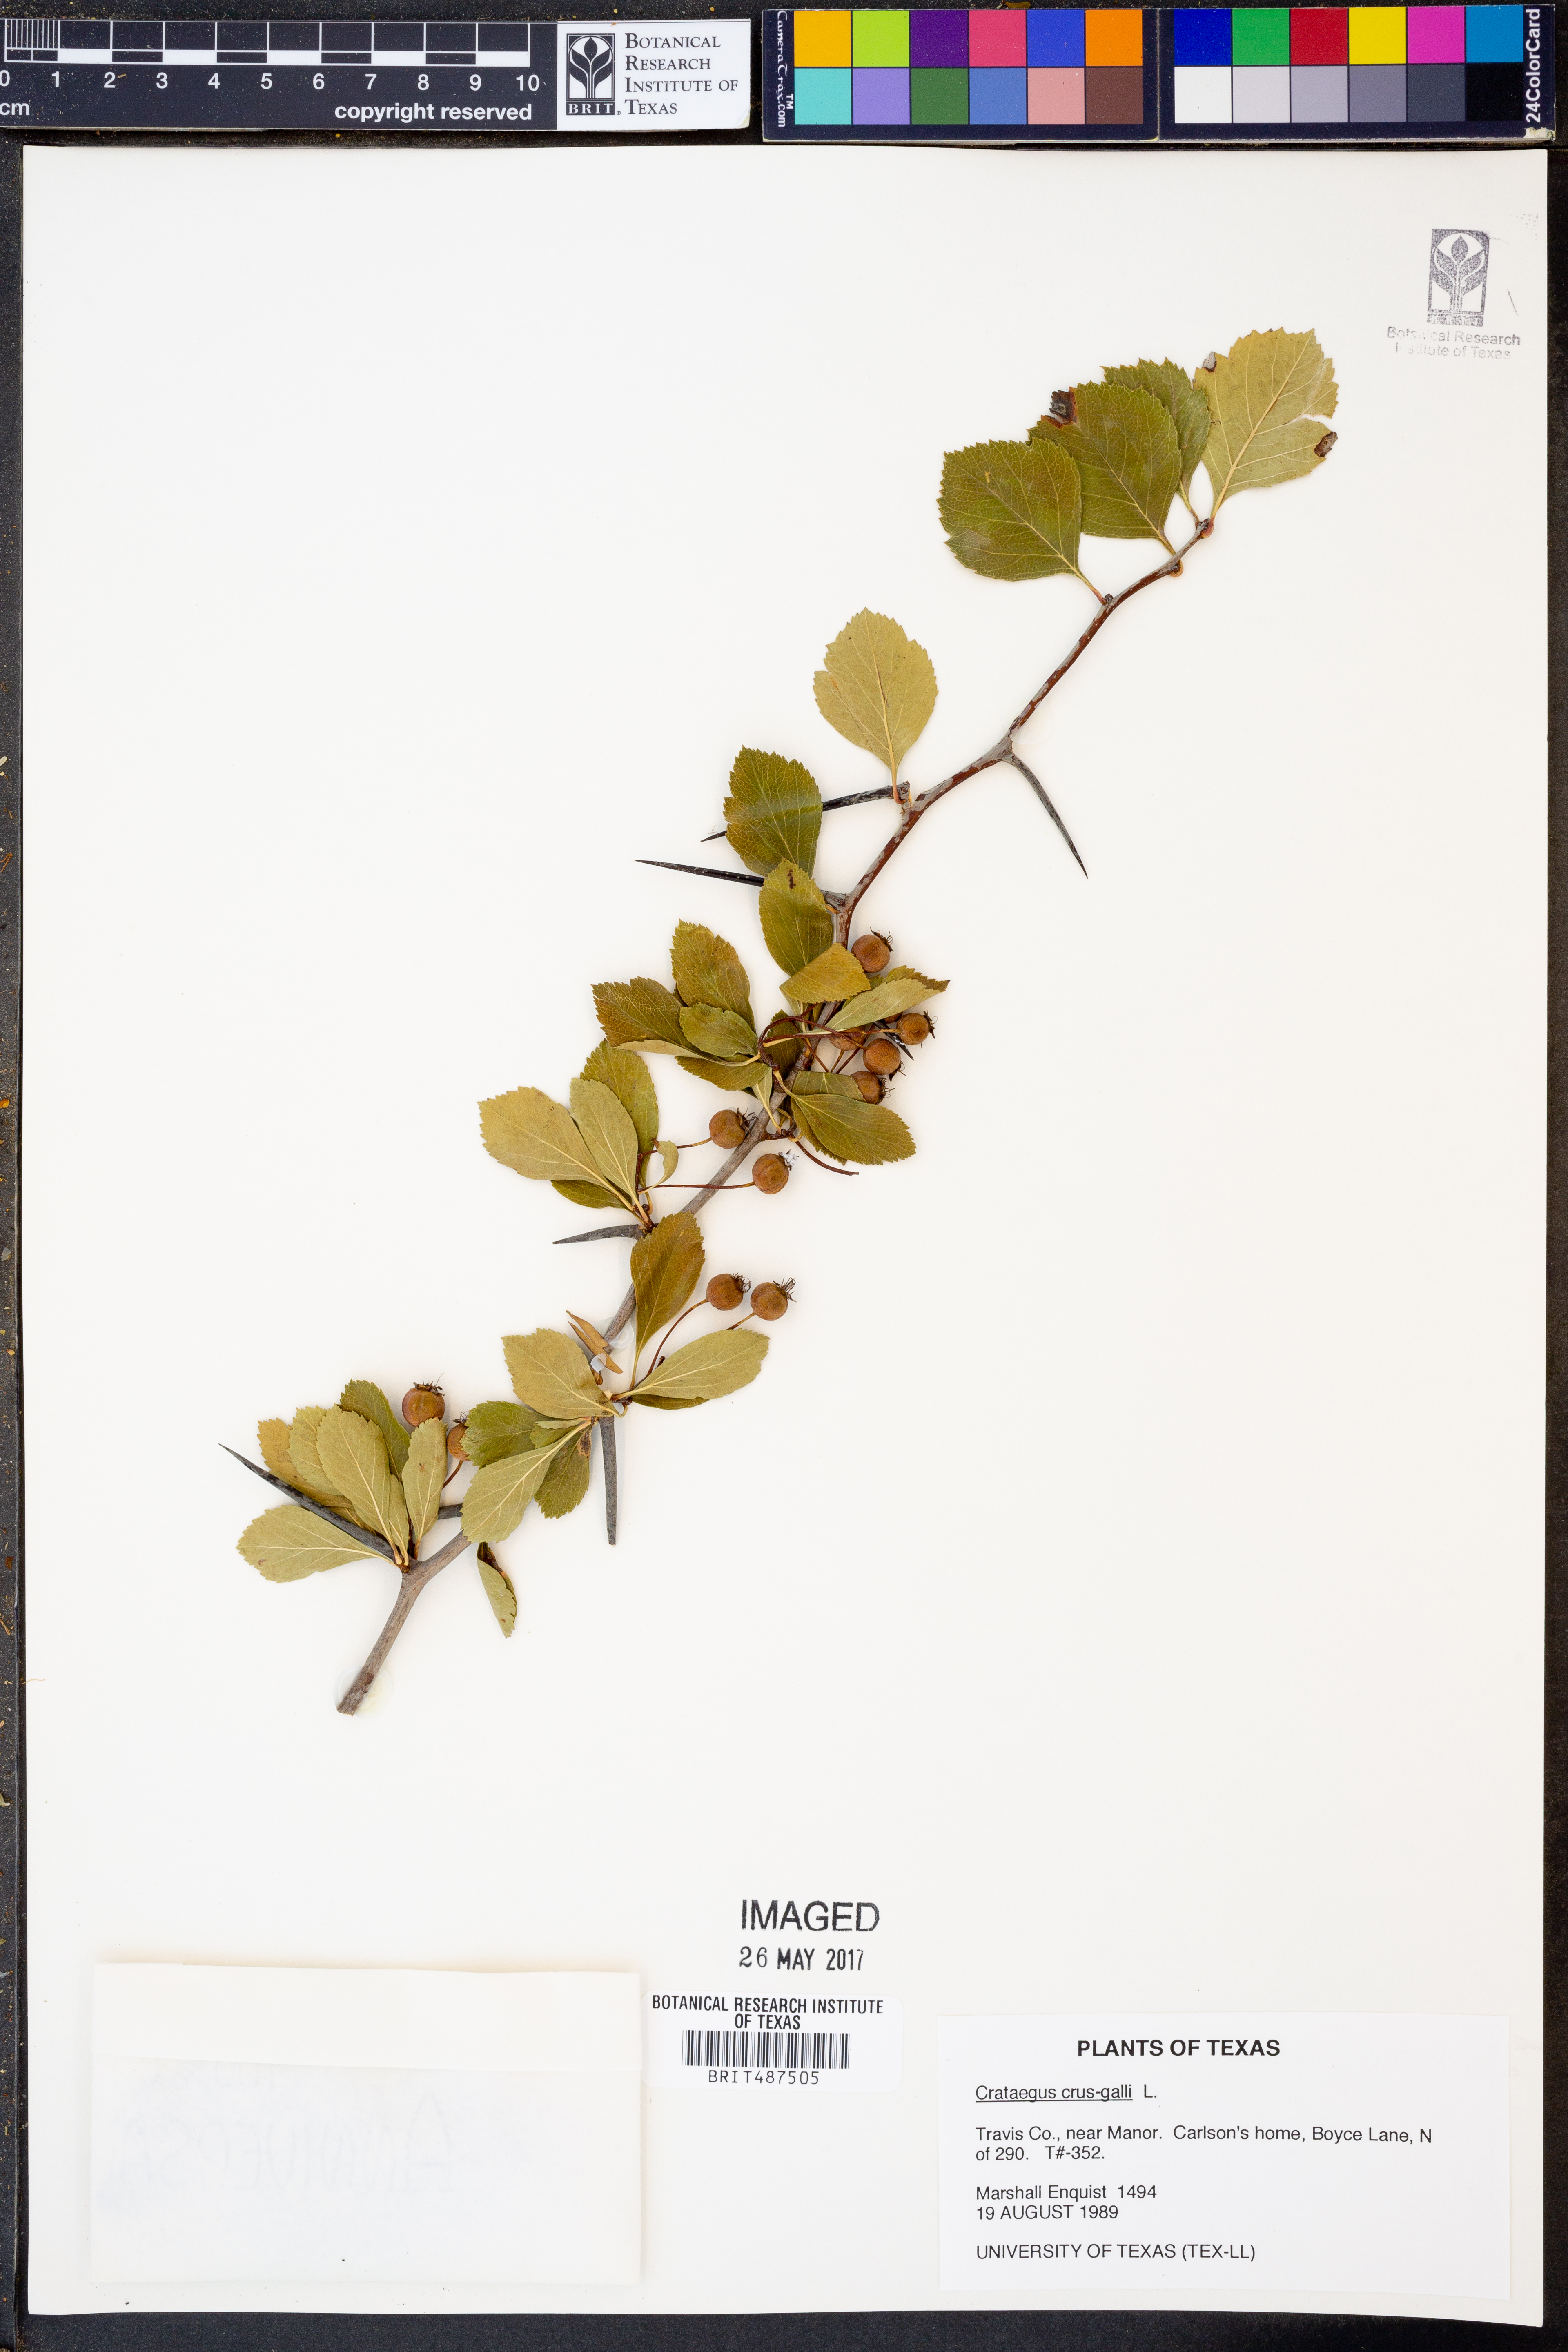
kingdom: Plantae
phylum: Tracheophyta
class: Magnoliopsida
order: Rosales
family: Rosaceae
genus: Crataegus
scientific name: Crataegus crus-galli
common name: Cockspurthorn
